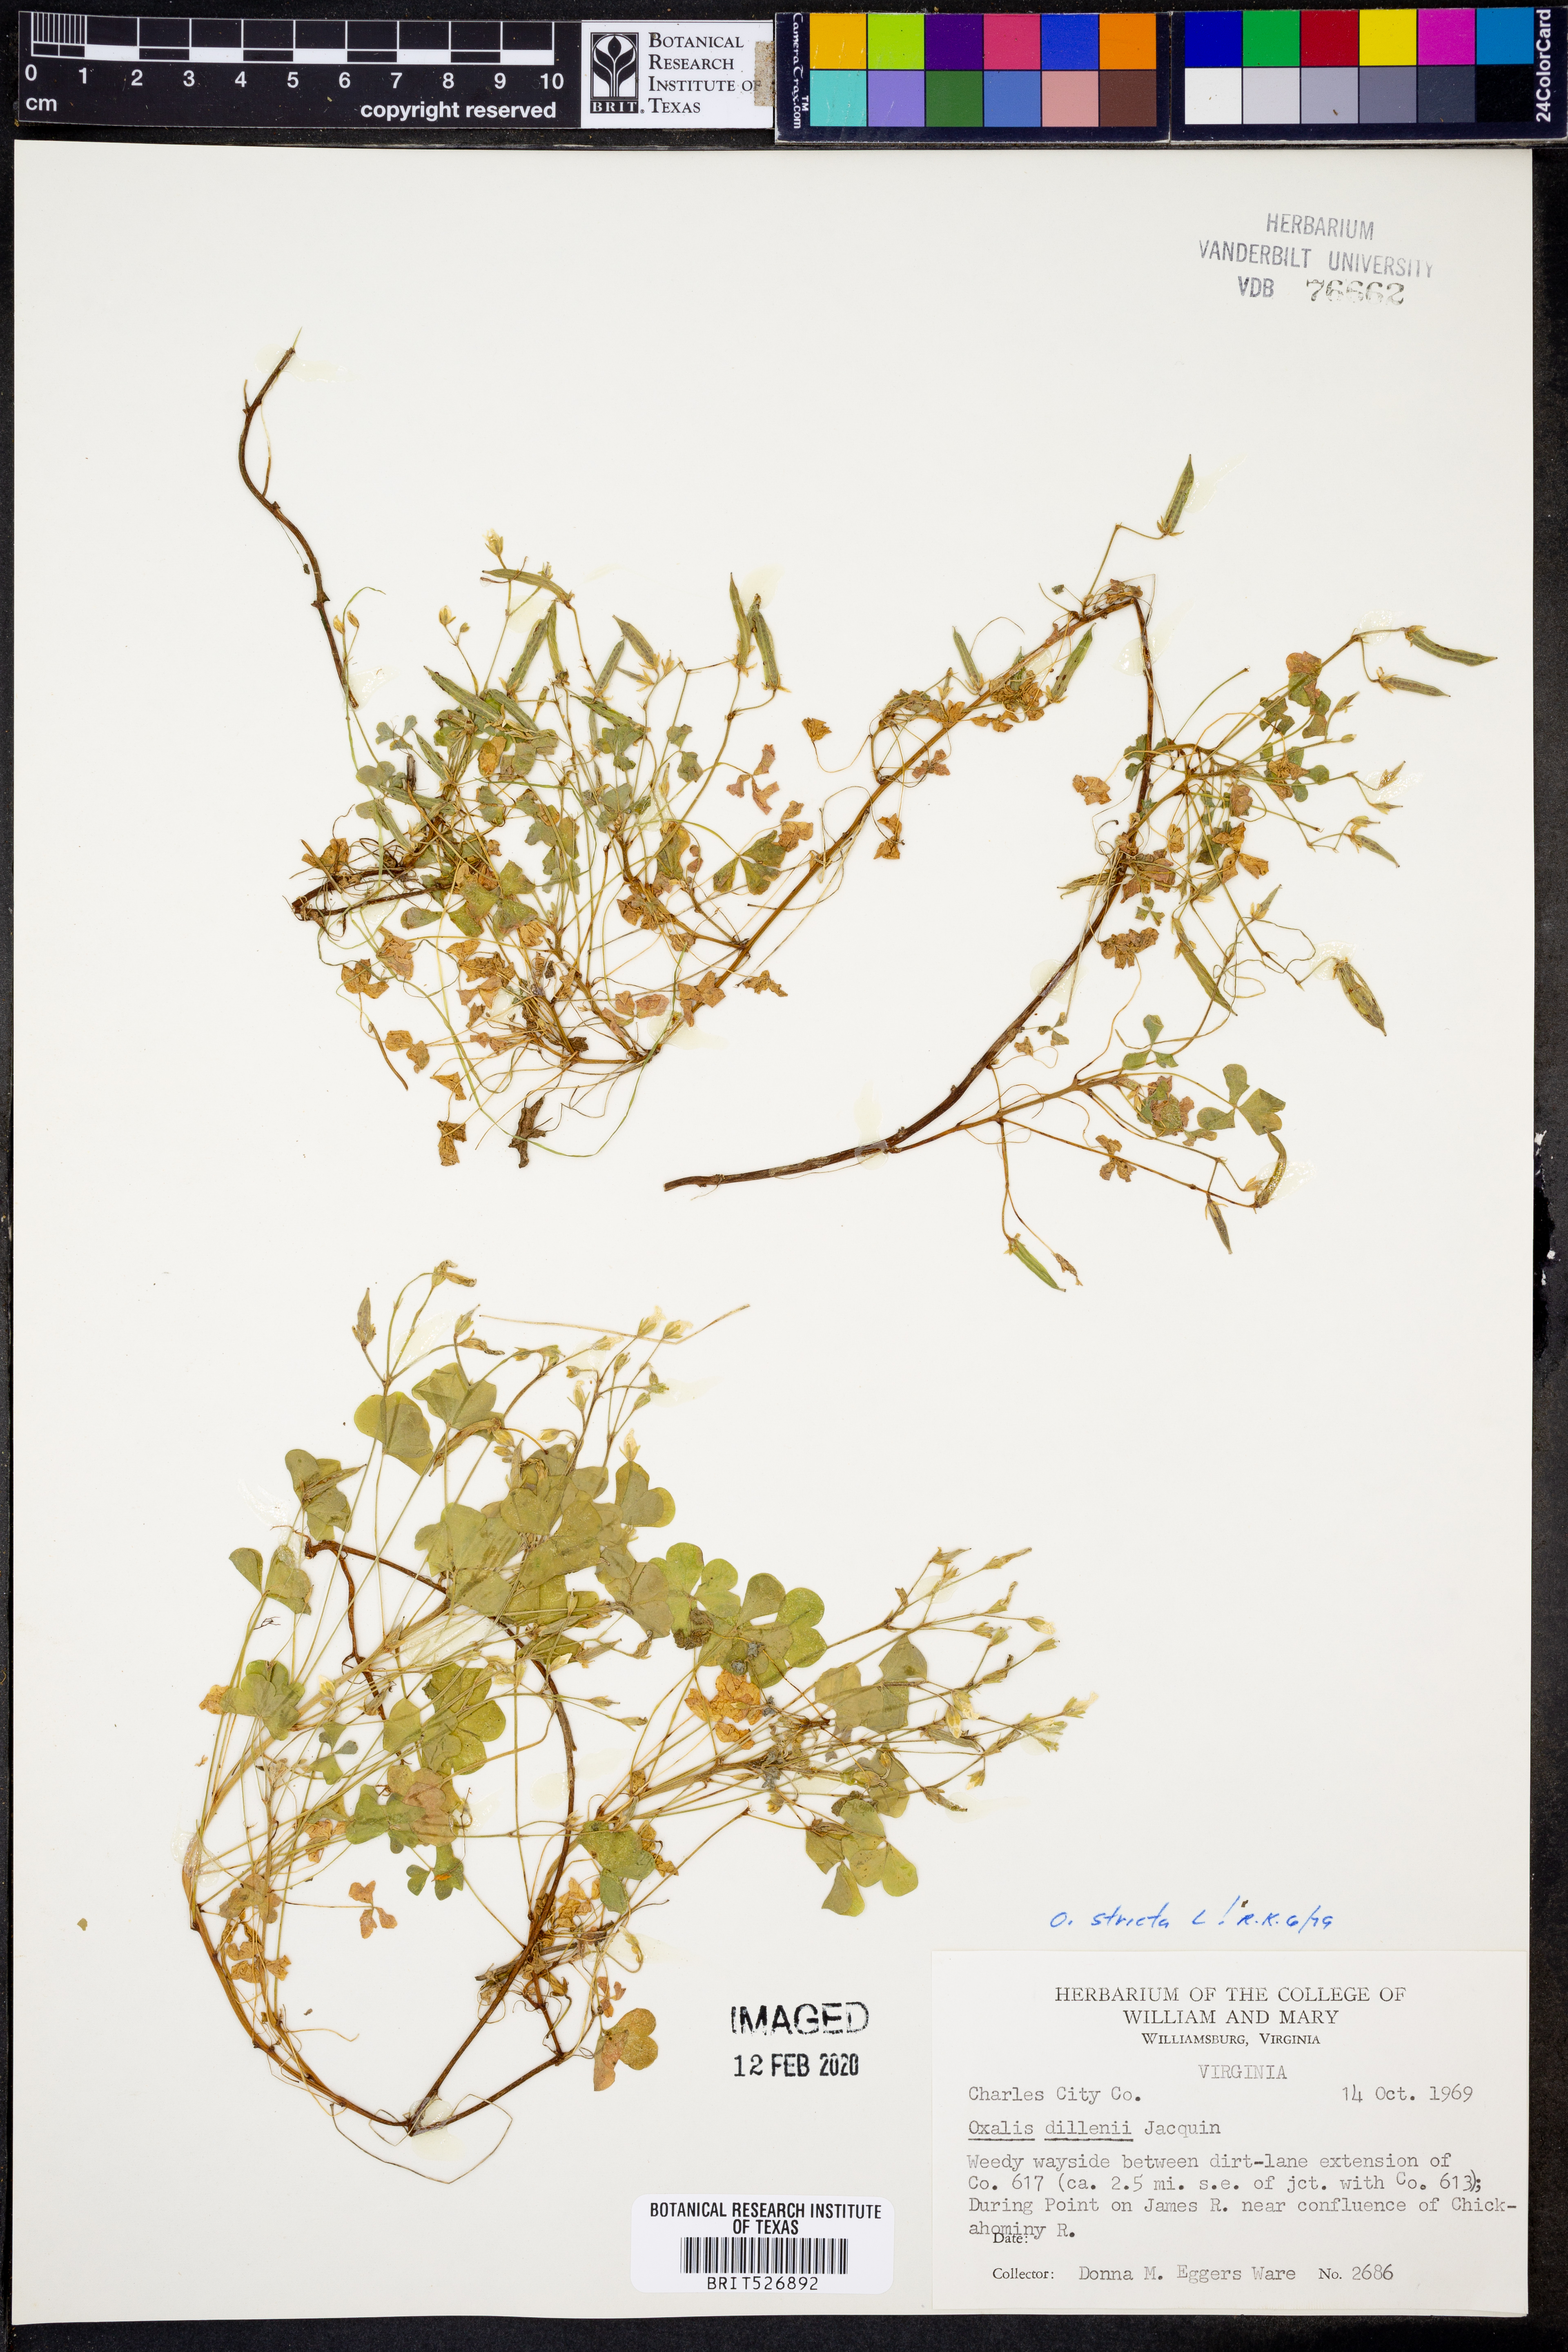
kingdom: Plantae
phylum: Tracheophyta
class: Magnoliopsida
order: Oxalidales
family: Oxalidaceae
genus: Oxalis
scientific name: Oxalis stricta
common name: Upright yellow-sorrel
